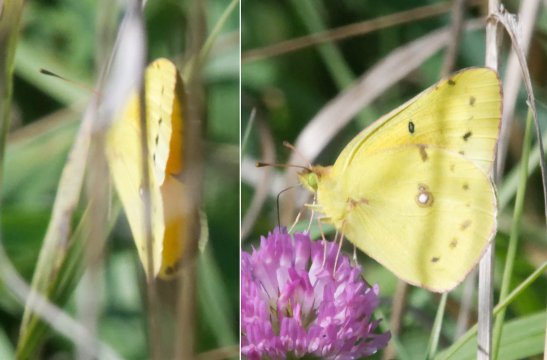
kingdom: Animalia
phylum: Arthropoda
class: Insecta
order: Lepidoptera
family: Pieridae
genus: Colias
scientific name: Colias eurytheme
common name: Orange Sulphur
